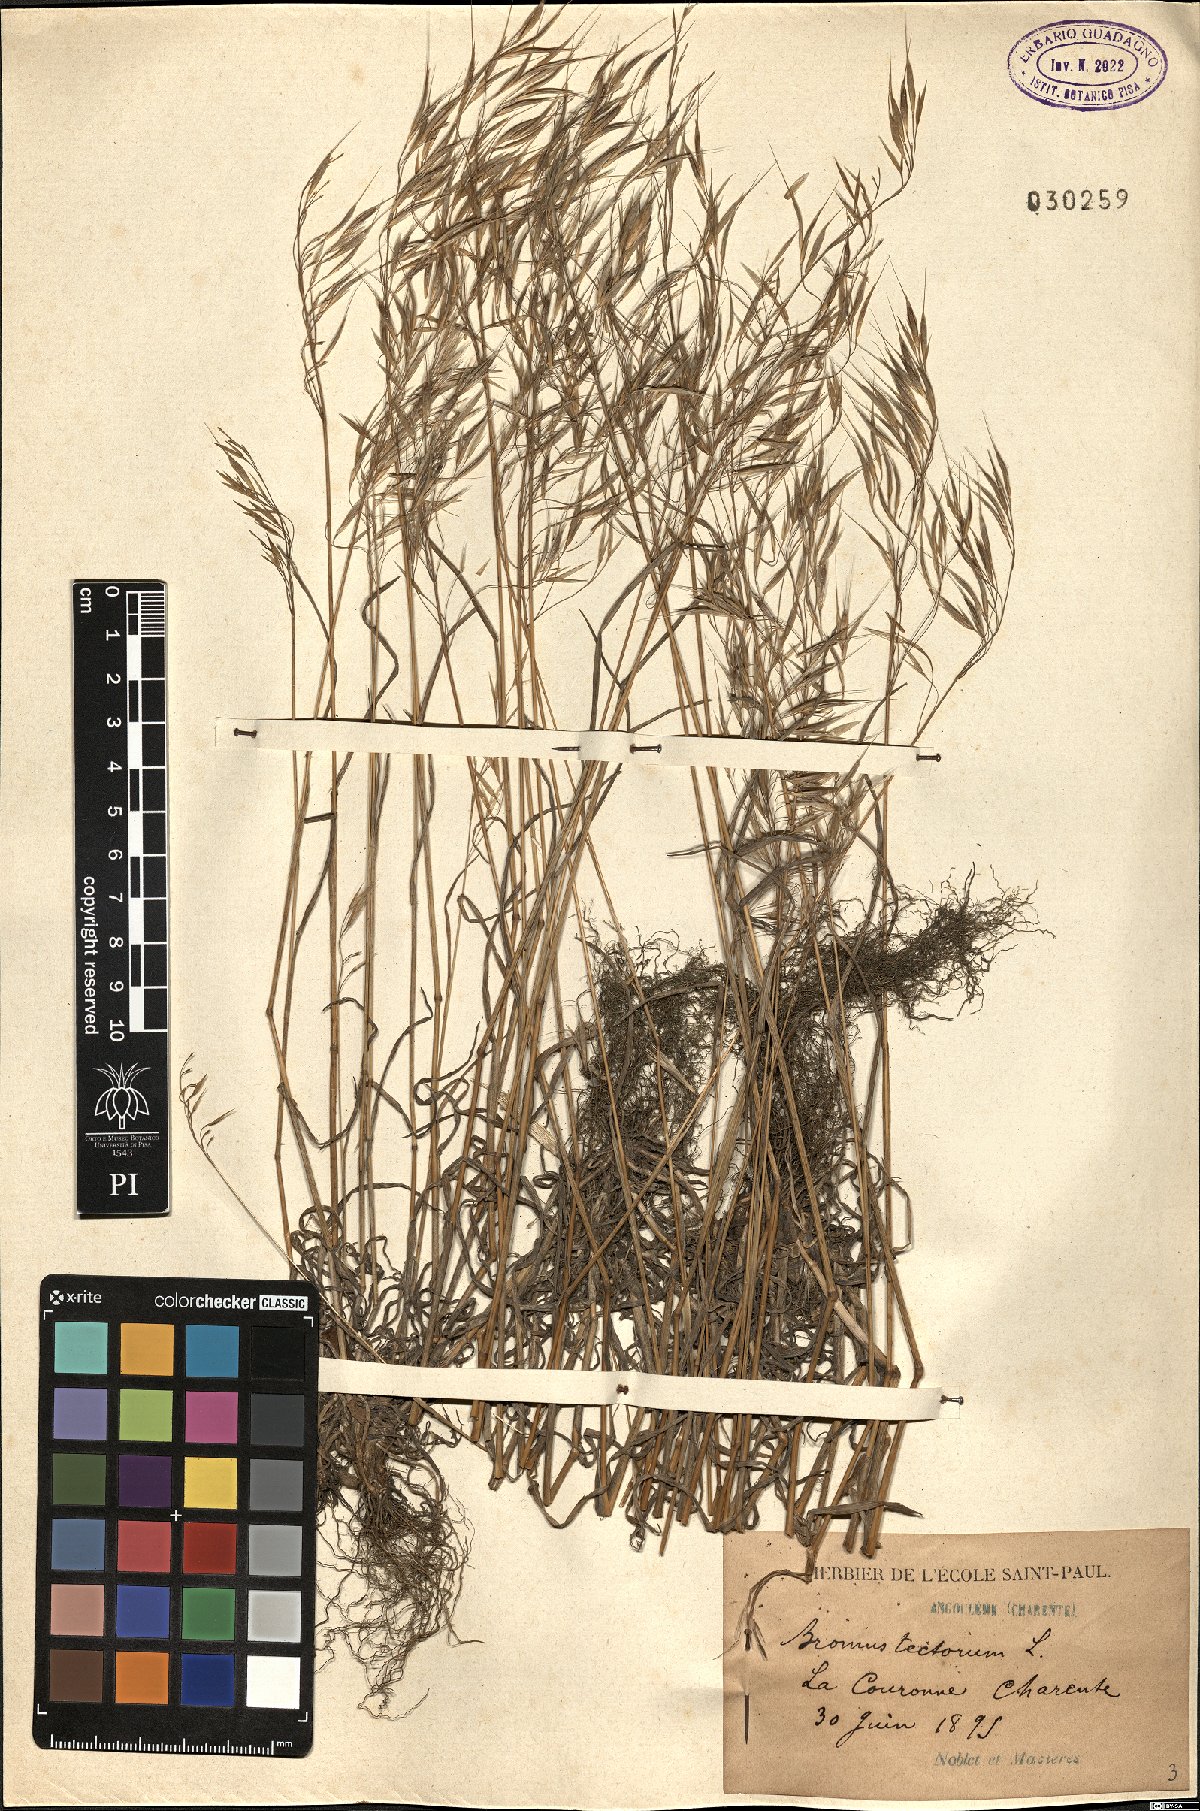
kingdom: Plantae
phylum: Tracheophyta
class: Liliopsida
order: Poales
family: Poaceae
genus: Bromus
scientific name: Bromus tectorum
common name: Cheatgrass
